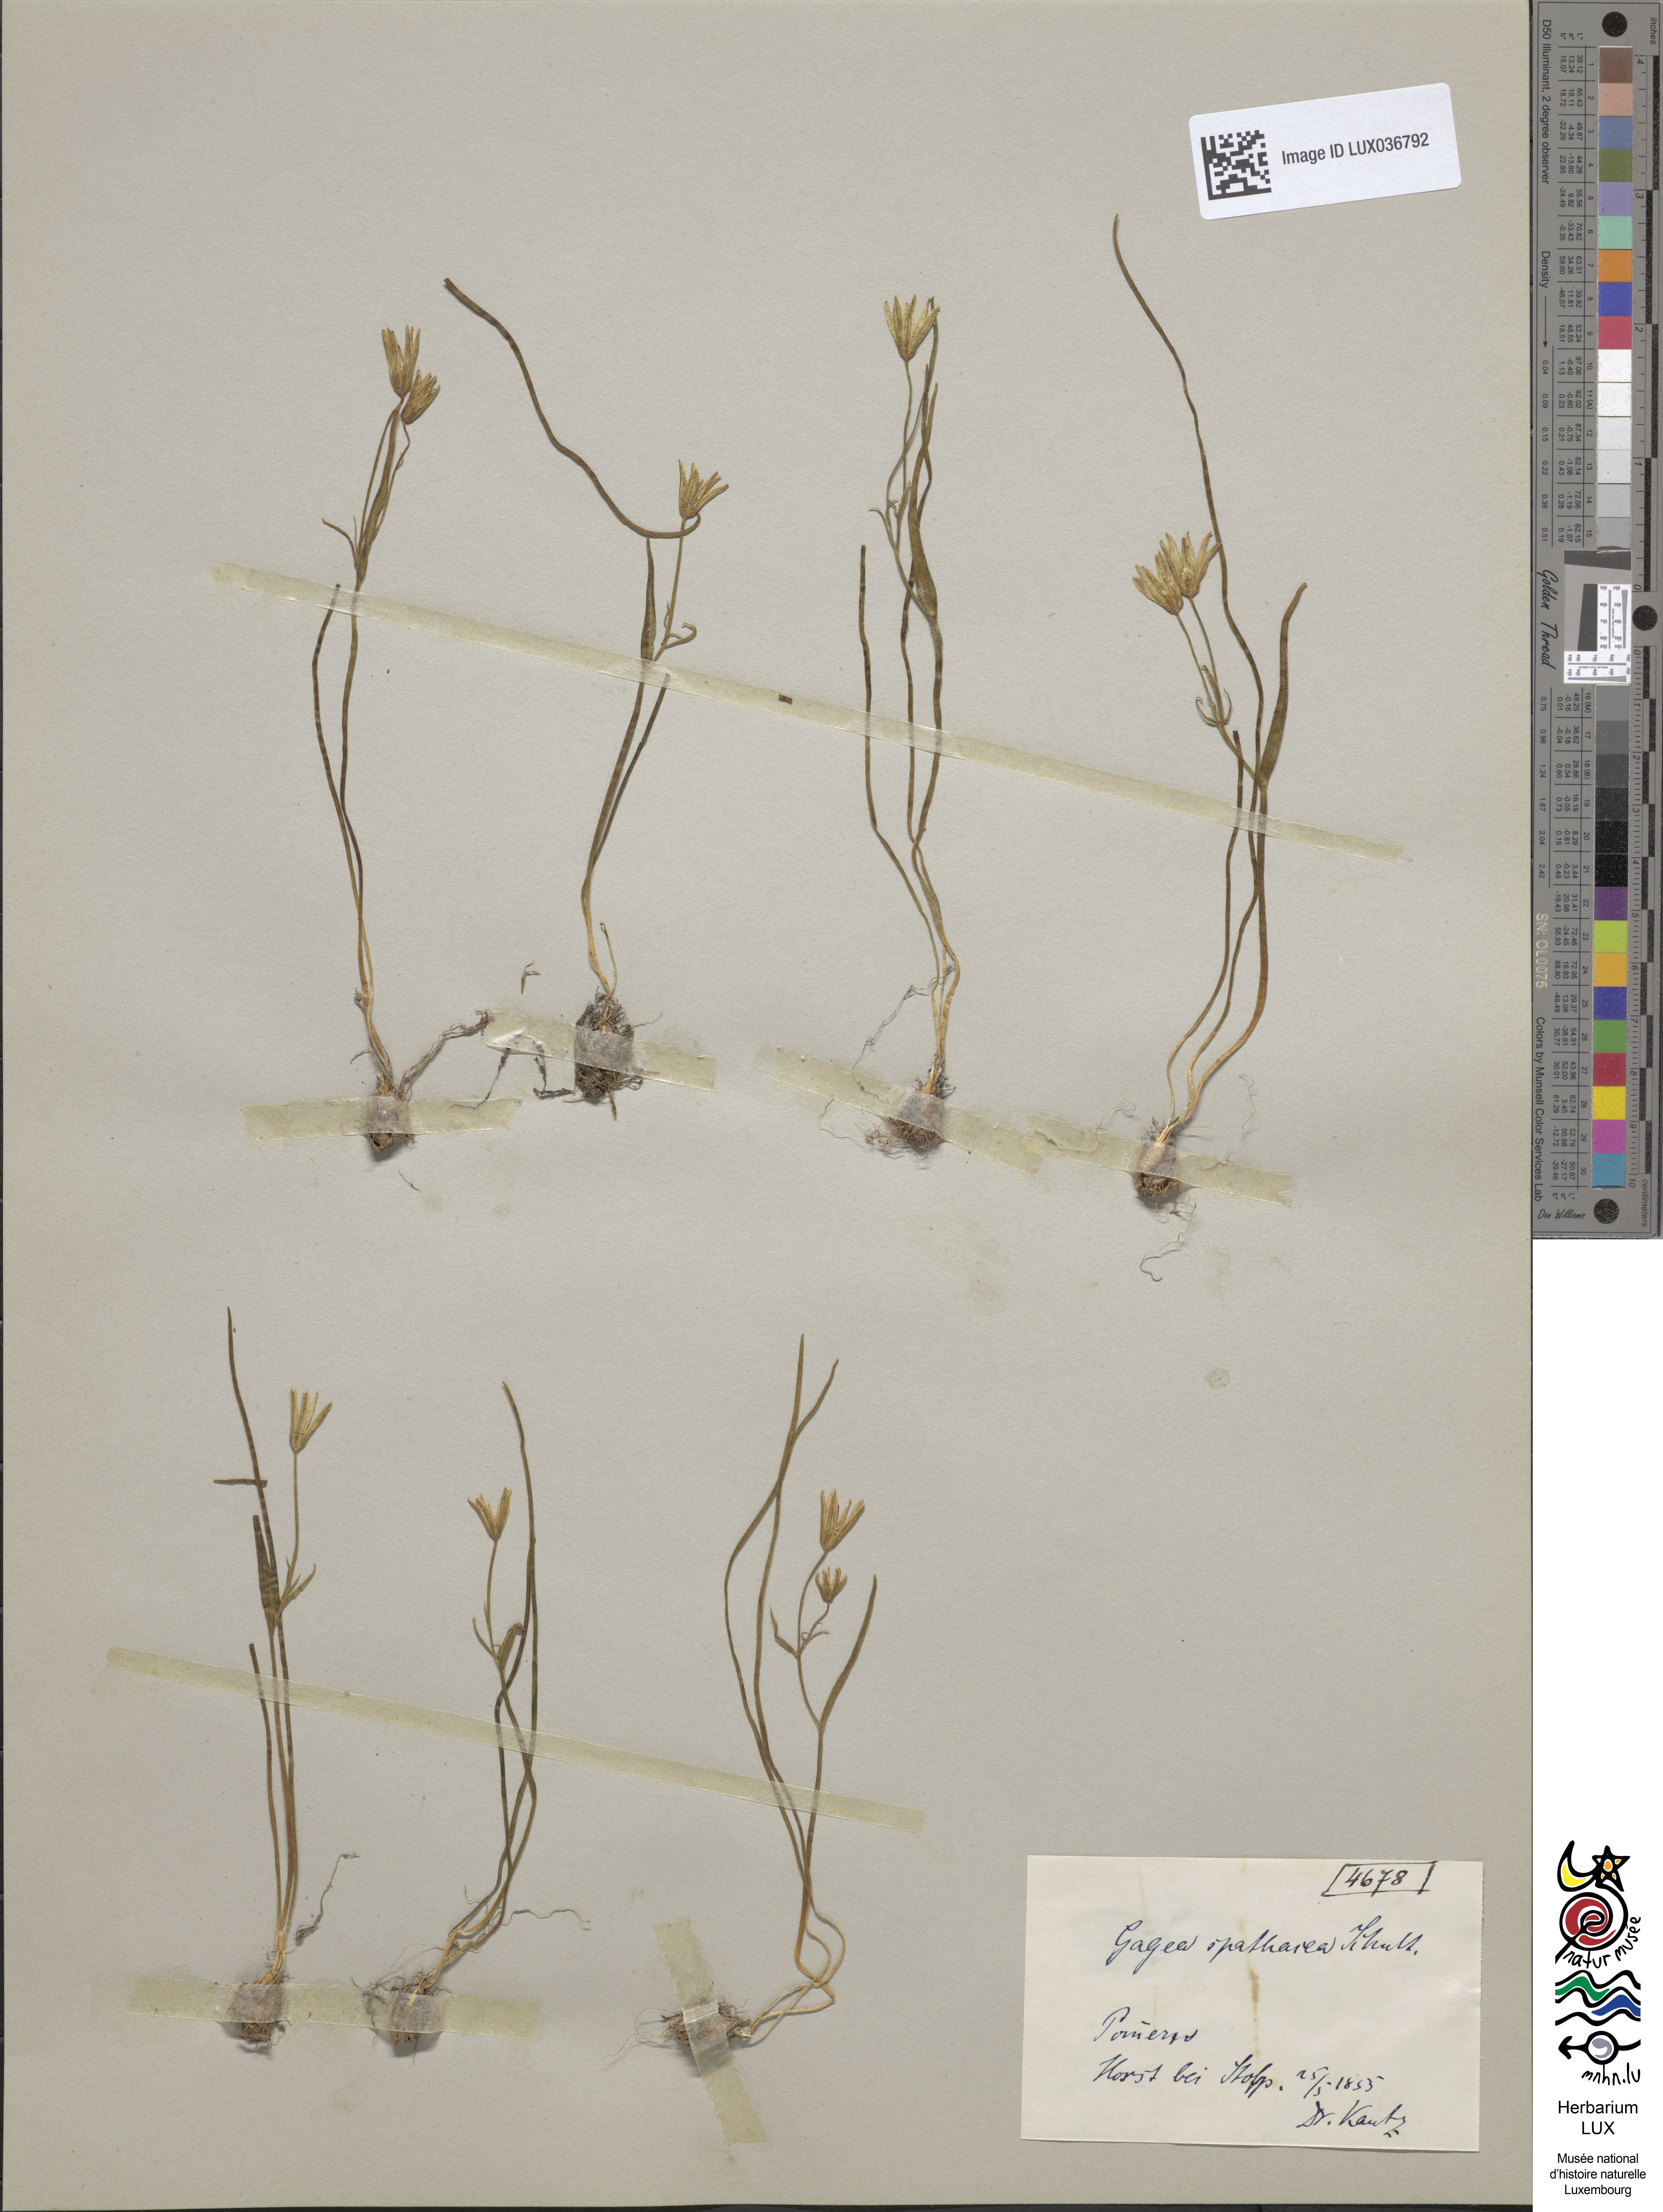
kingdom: Plantae
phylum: Tracheophyta
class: Liliopsida
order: Liliales
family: Liliaceae
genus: Gagea
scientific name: Gagea spathacea
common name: Belgian gagea
